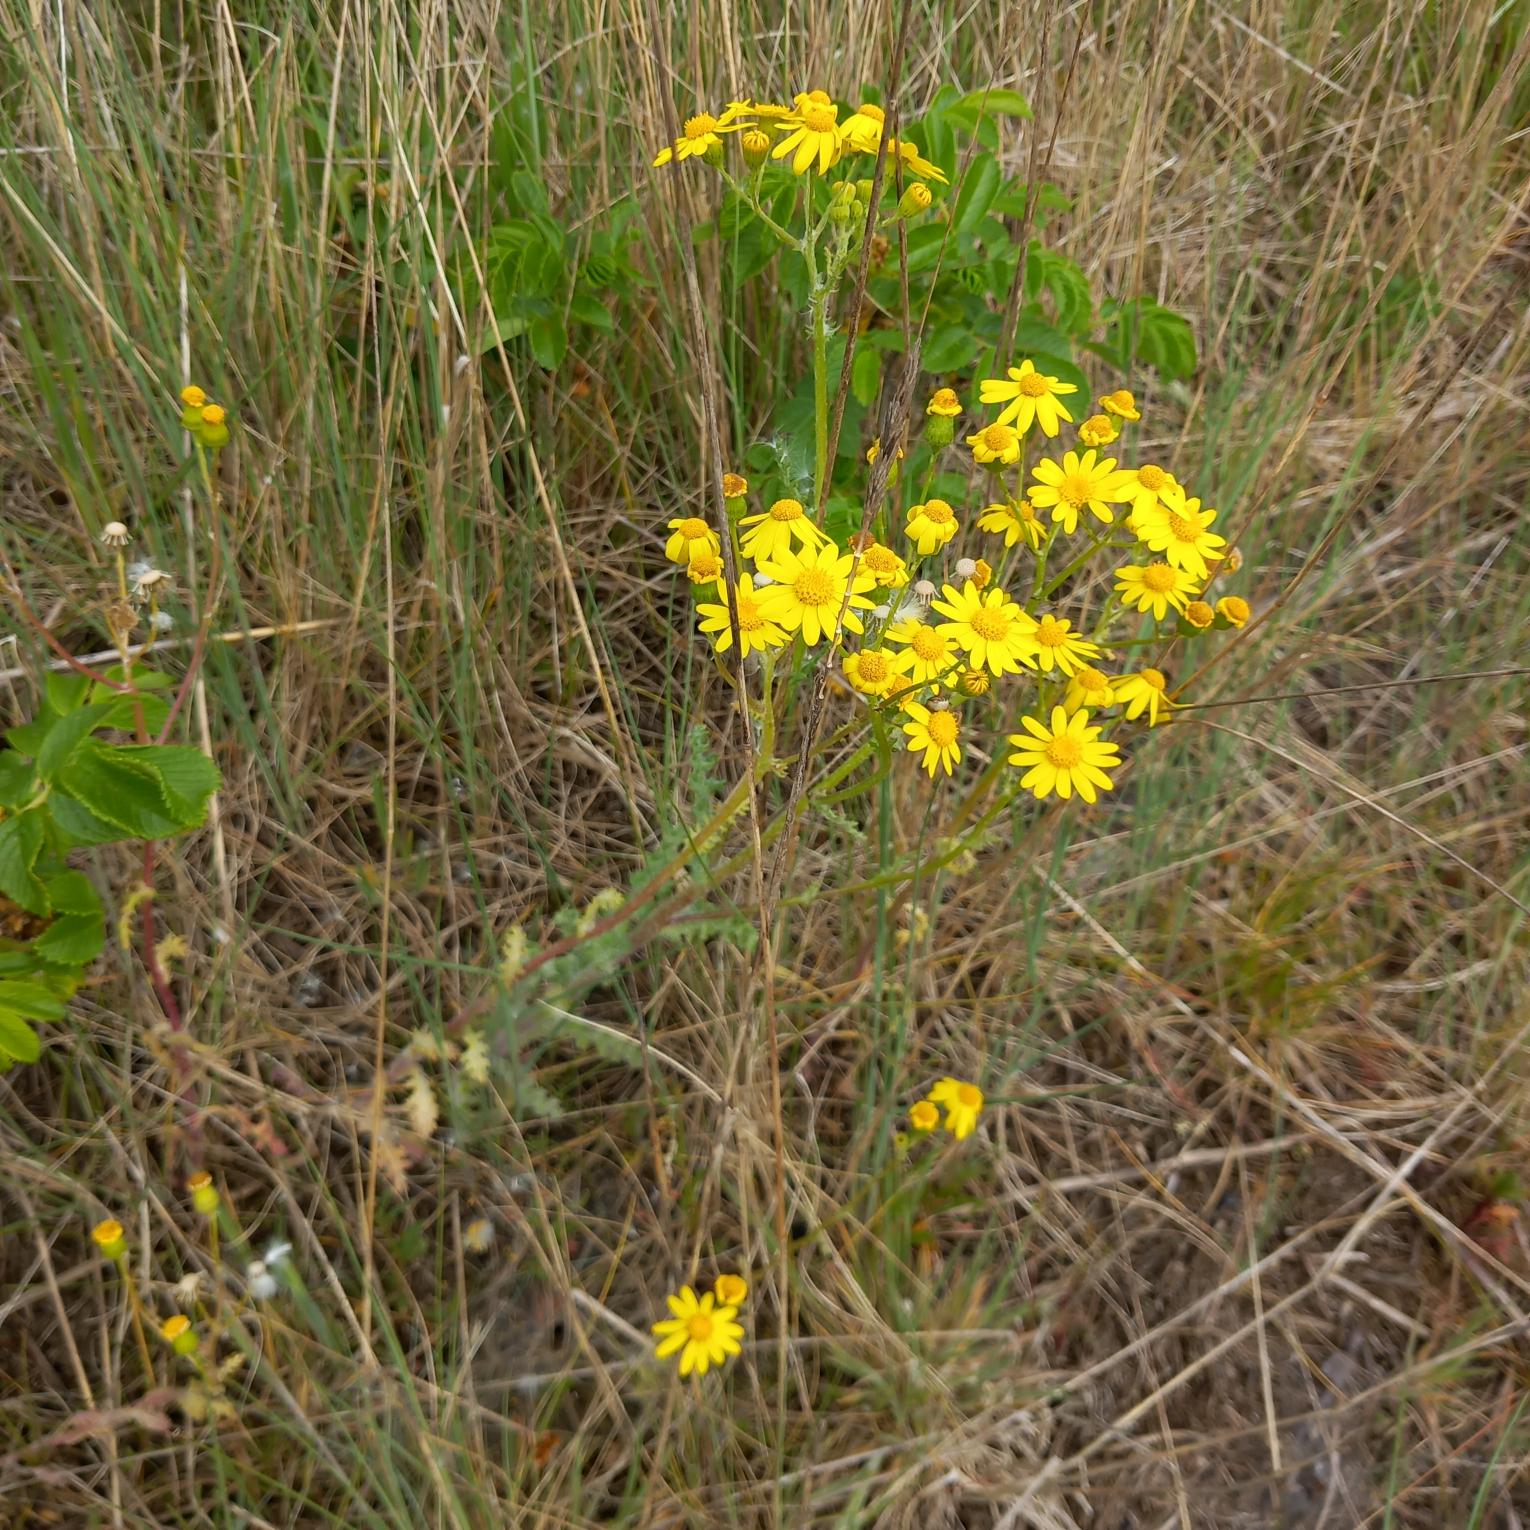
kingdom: Plantae
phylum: Tracheophyta
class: Magnoliopsida
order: Asterales
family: Asteraceae
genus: Senecio
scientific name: Senecio leucanthemifolius
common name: Vår-brandbæger
